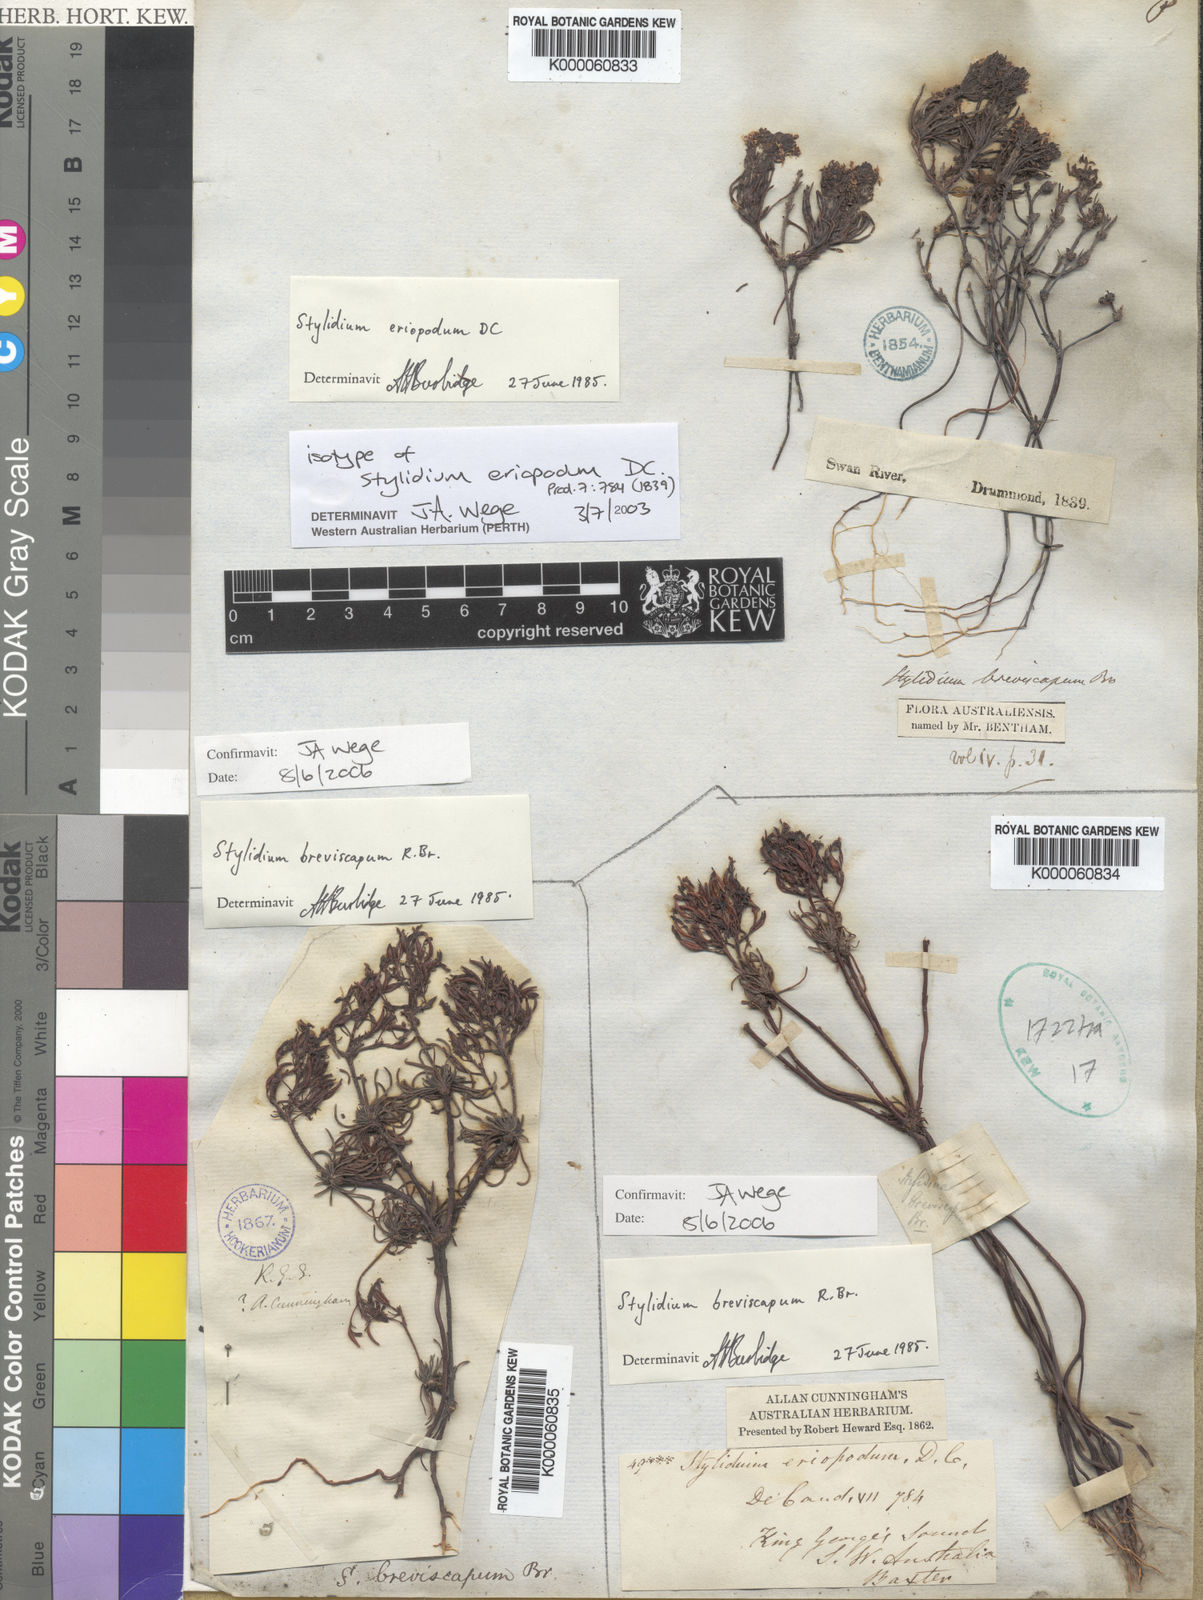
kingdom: Plantae
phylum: Tracheophyta
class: Magnoliopsida
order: Asterales
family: Stylidiaceae
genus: Stylidium
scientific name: Stylidium breviscapum
